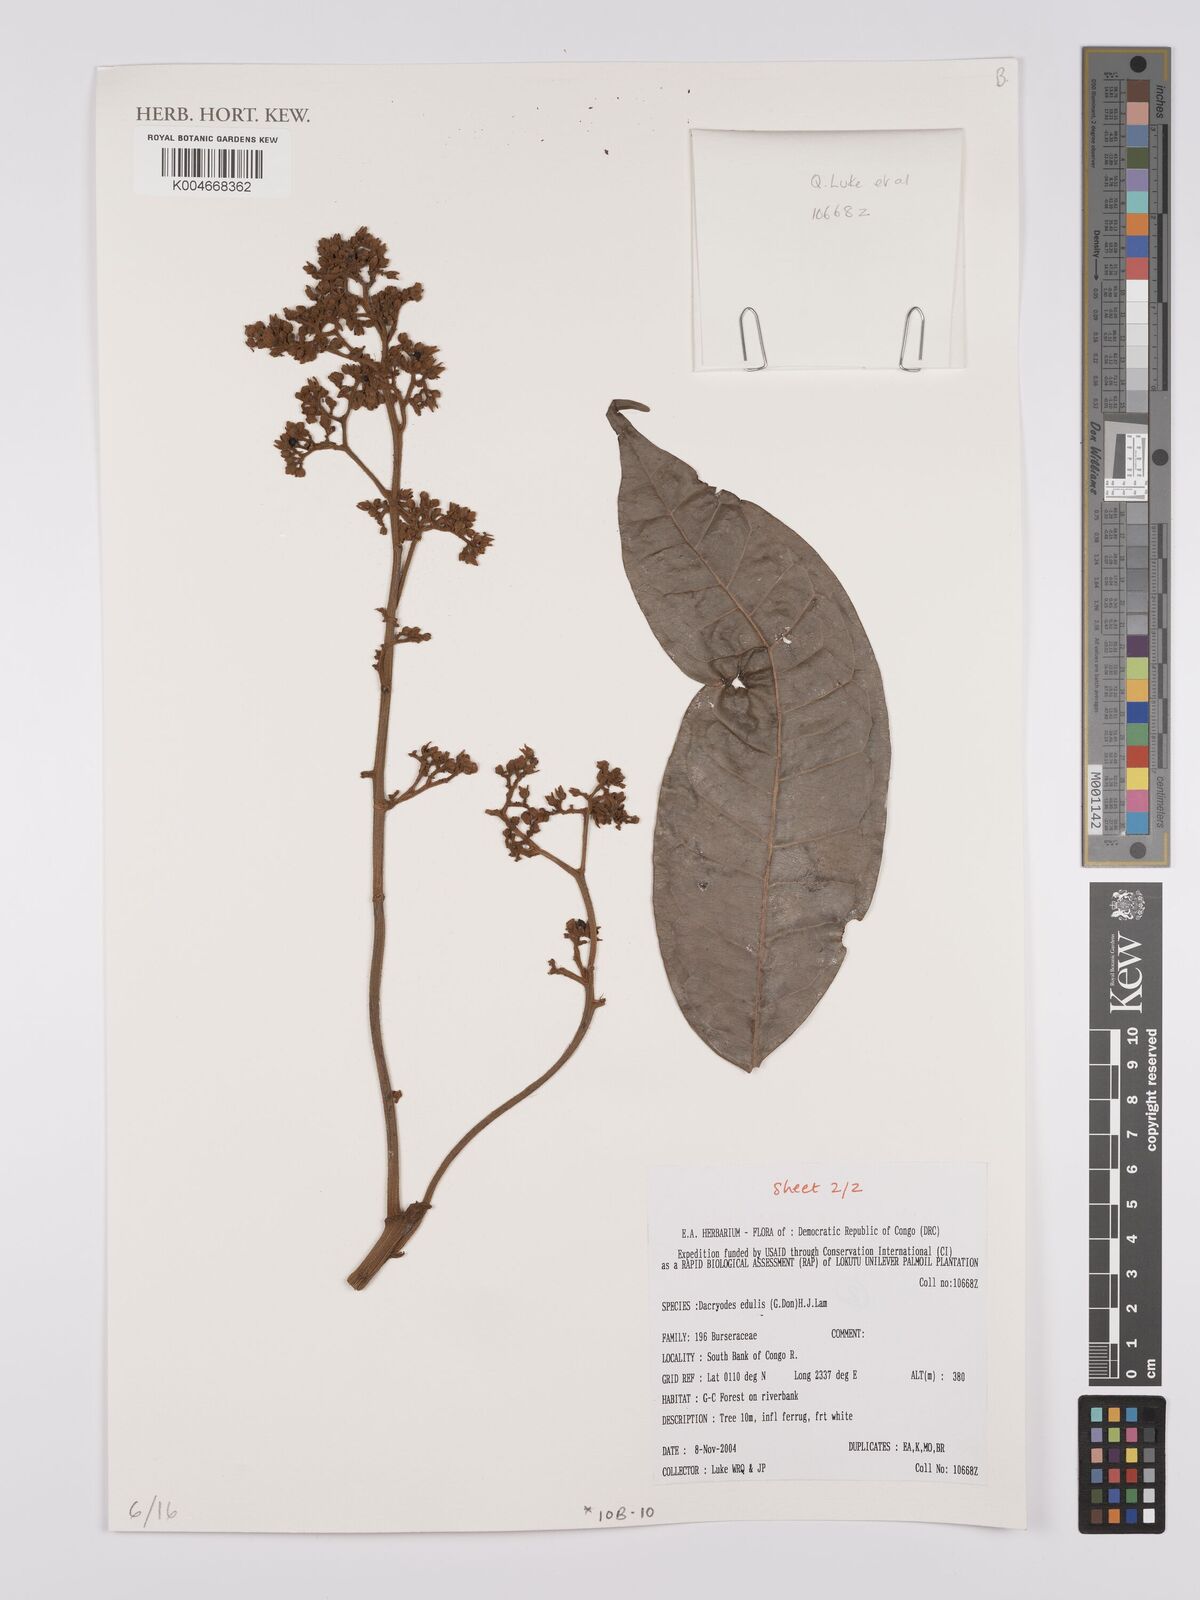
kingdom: Plantae
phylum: Tracheophyta
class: Magnoliopsida
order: Sapindales
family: Burseraceae
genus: Pachylobus
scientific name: Pachylobus edulis
